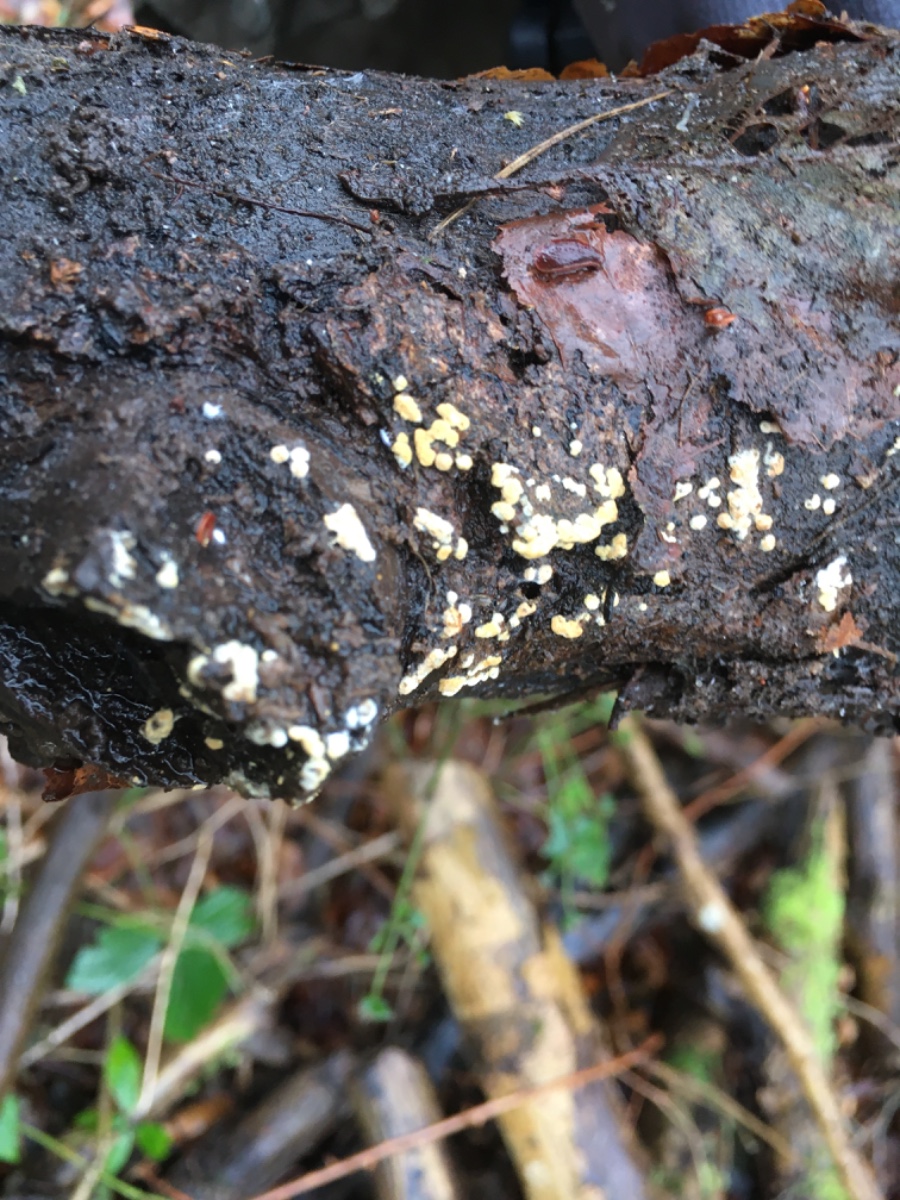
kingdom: Fungi
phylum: Basidiomycota
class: Agaricomycetes
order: Cantharellales
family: Botryobasidiaceae
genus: Botryobasidium
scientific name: Botryobasidium aureum
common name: gylden spindhinde
